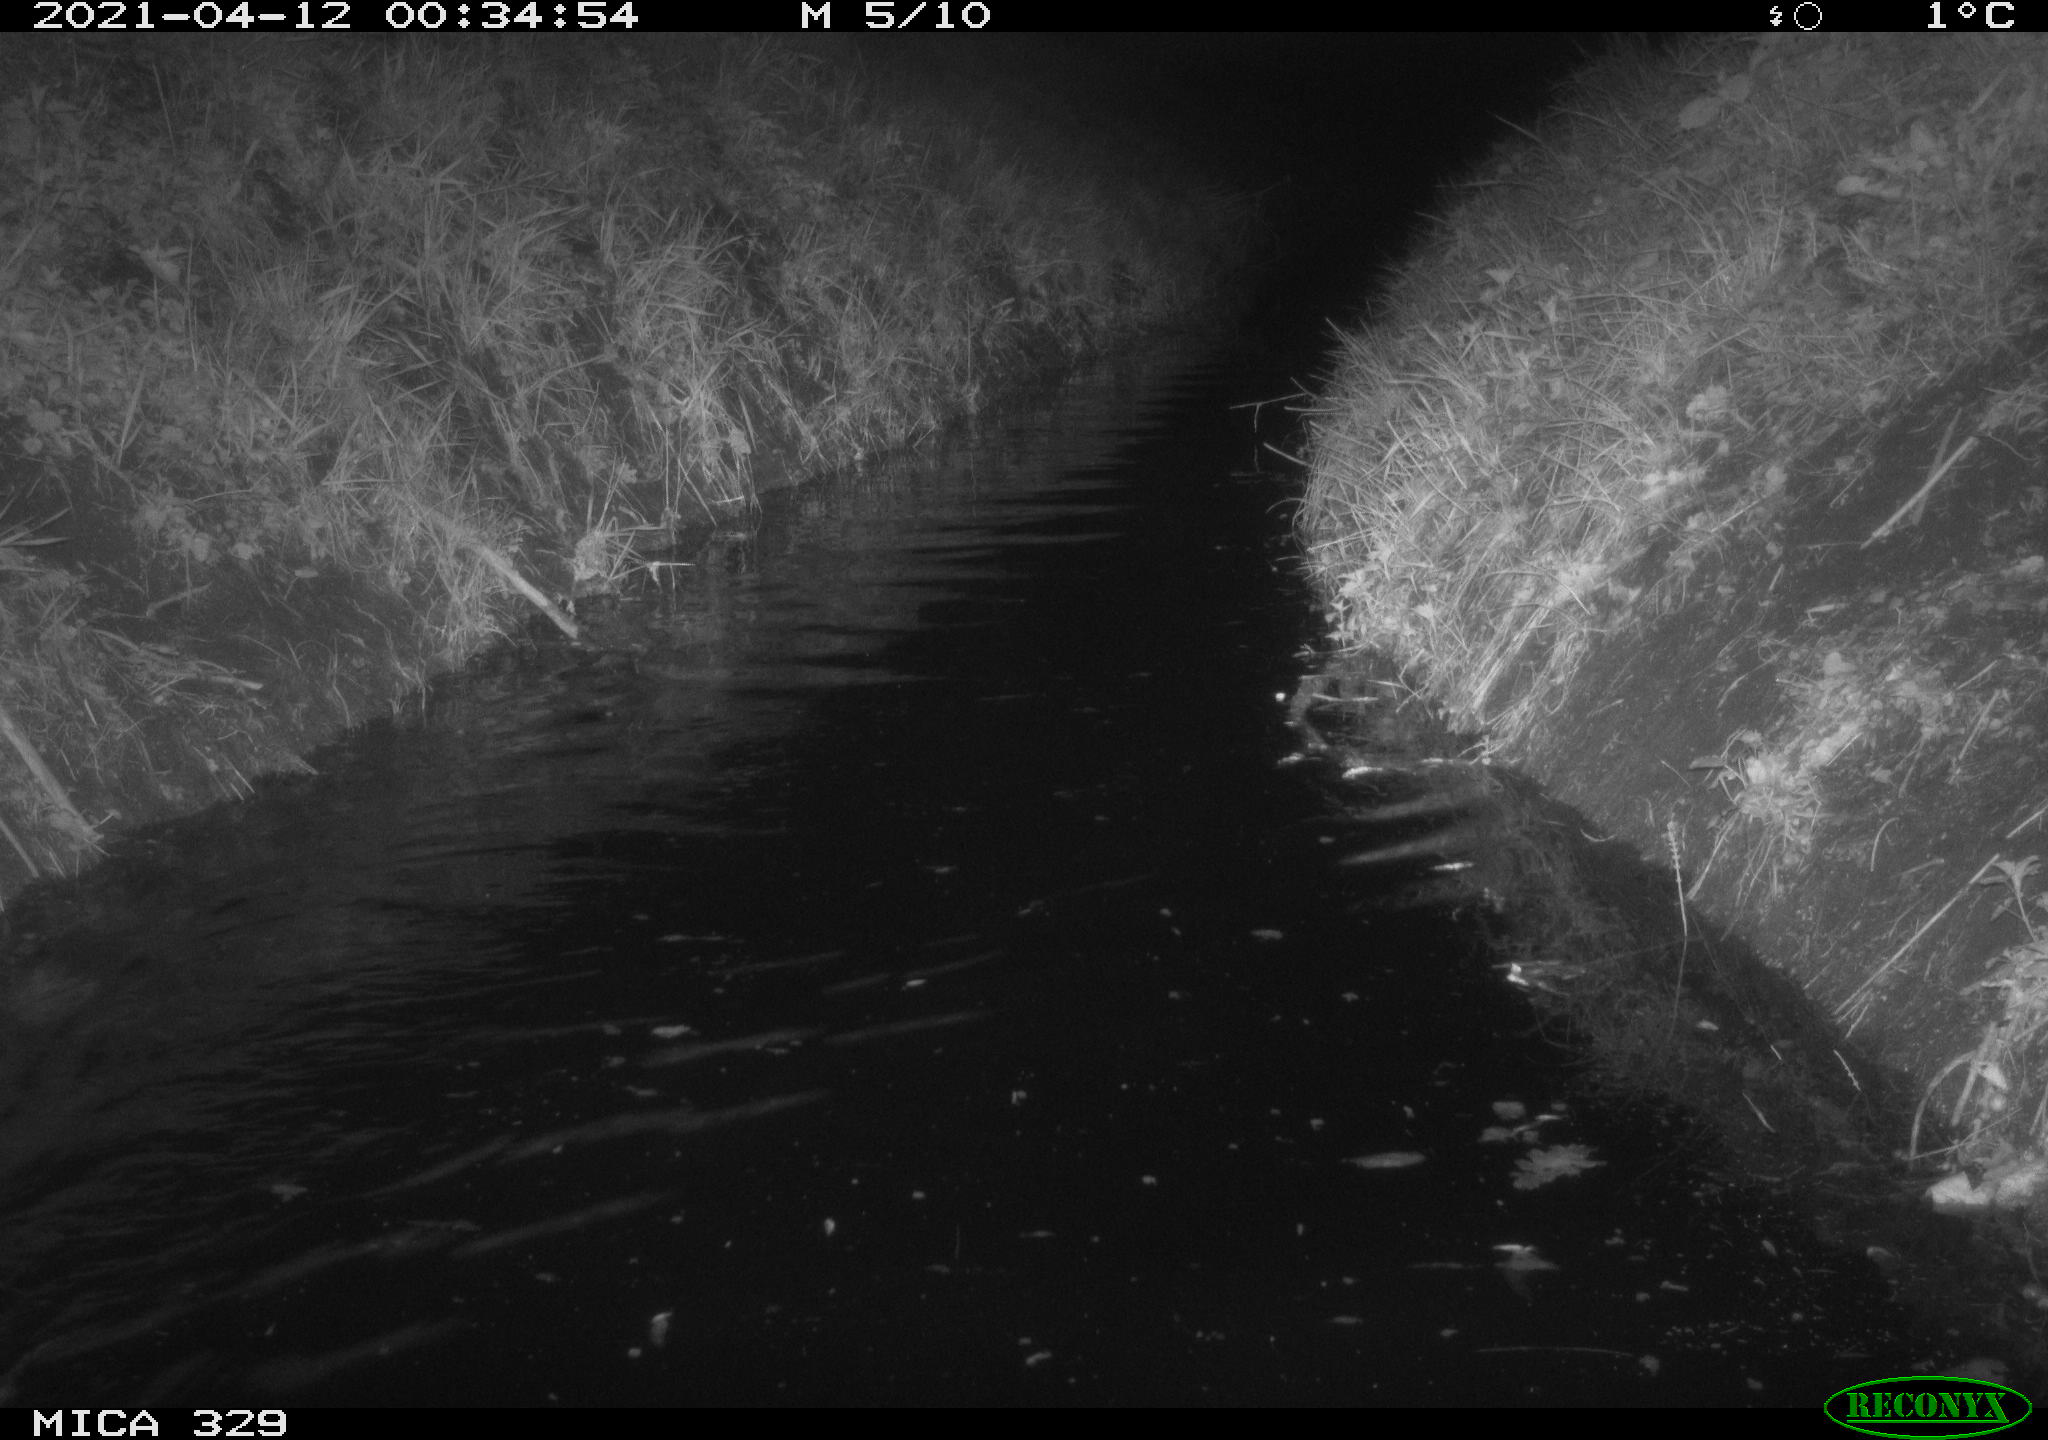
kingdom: Animalia
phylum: Chordata
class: Mammalia
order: Rodentia
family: Cricetidae
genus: Ondatra
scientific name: Ondatra zibethicus
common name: Muskrat
